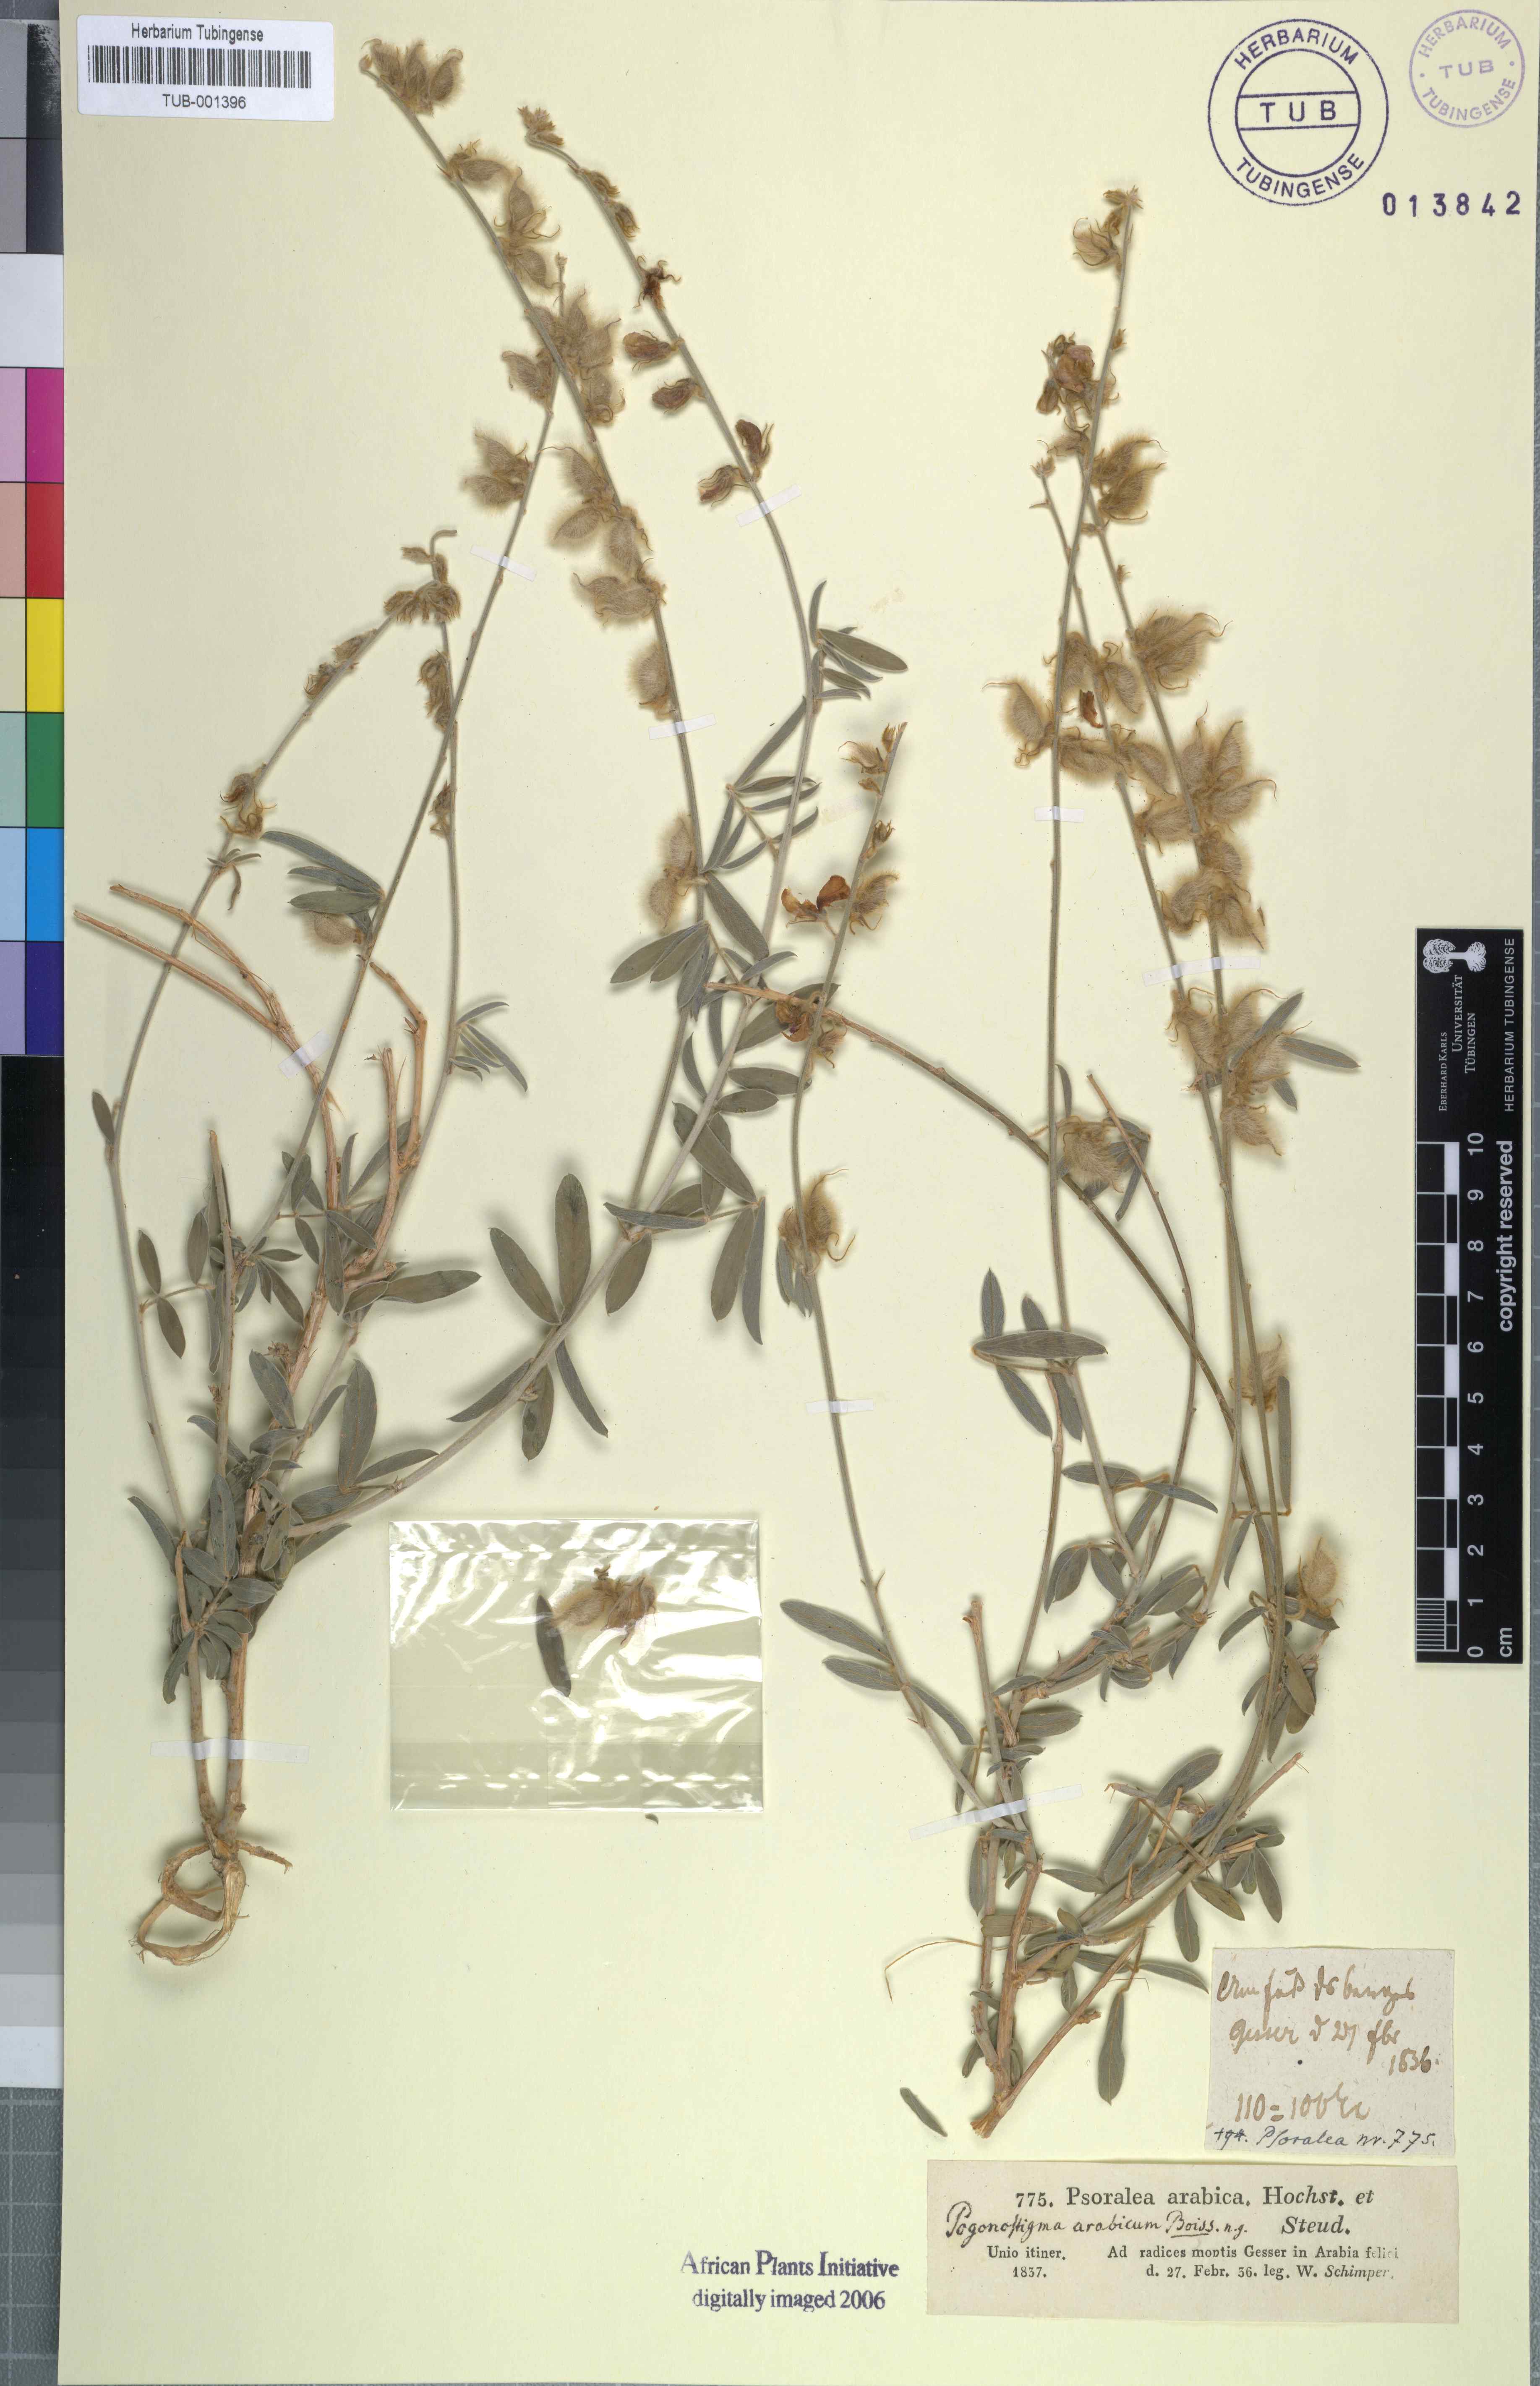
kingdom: Plantae
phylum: Tracheophyta
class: Magnoliopsida
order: Fabales
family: Fabaceae
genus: Tephrosia
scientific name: Tephrosia nubica
